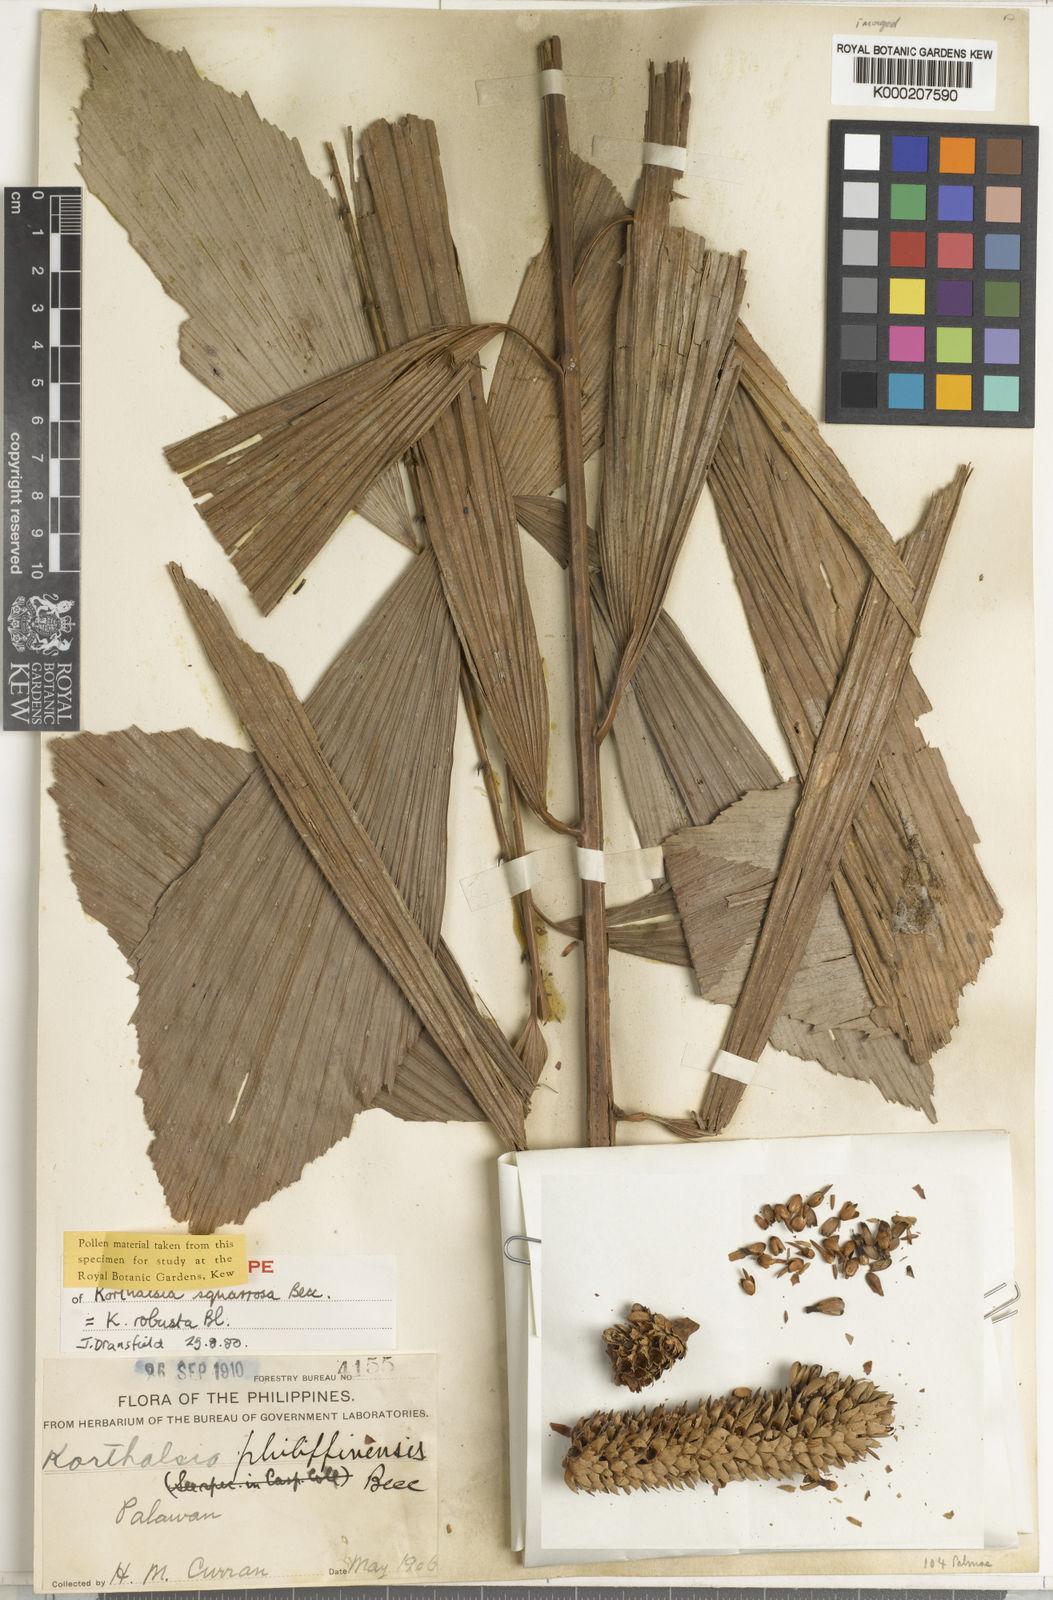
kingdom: Plantae
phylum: Tracheophyta
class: Liliopsida
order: Arecales
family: Arecaceae
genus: Korthalsia
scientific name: Korthalsia robusta
